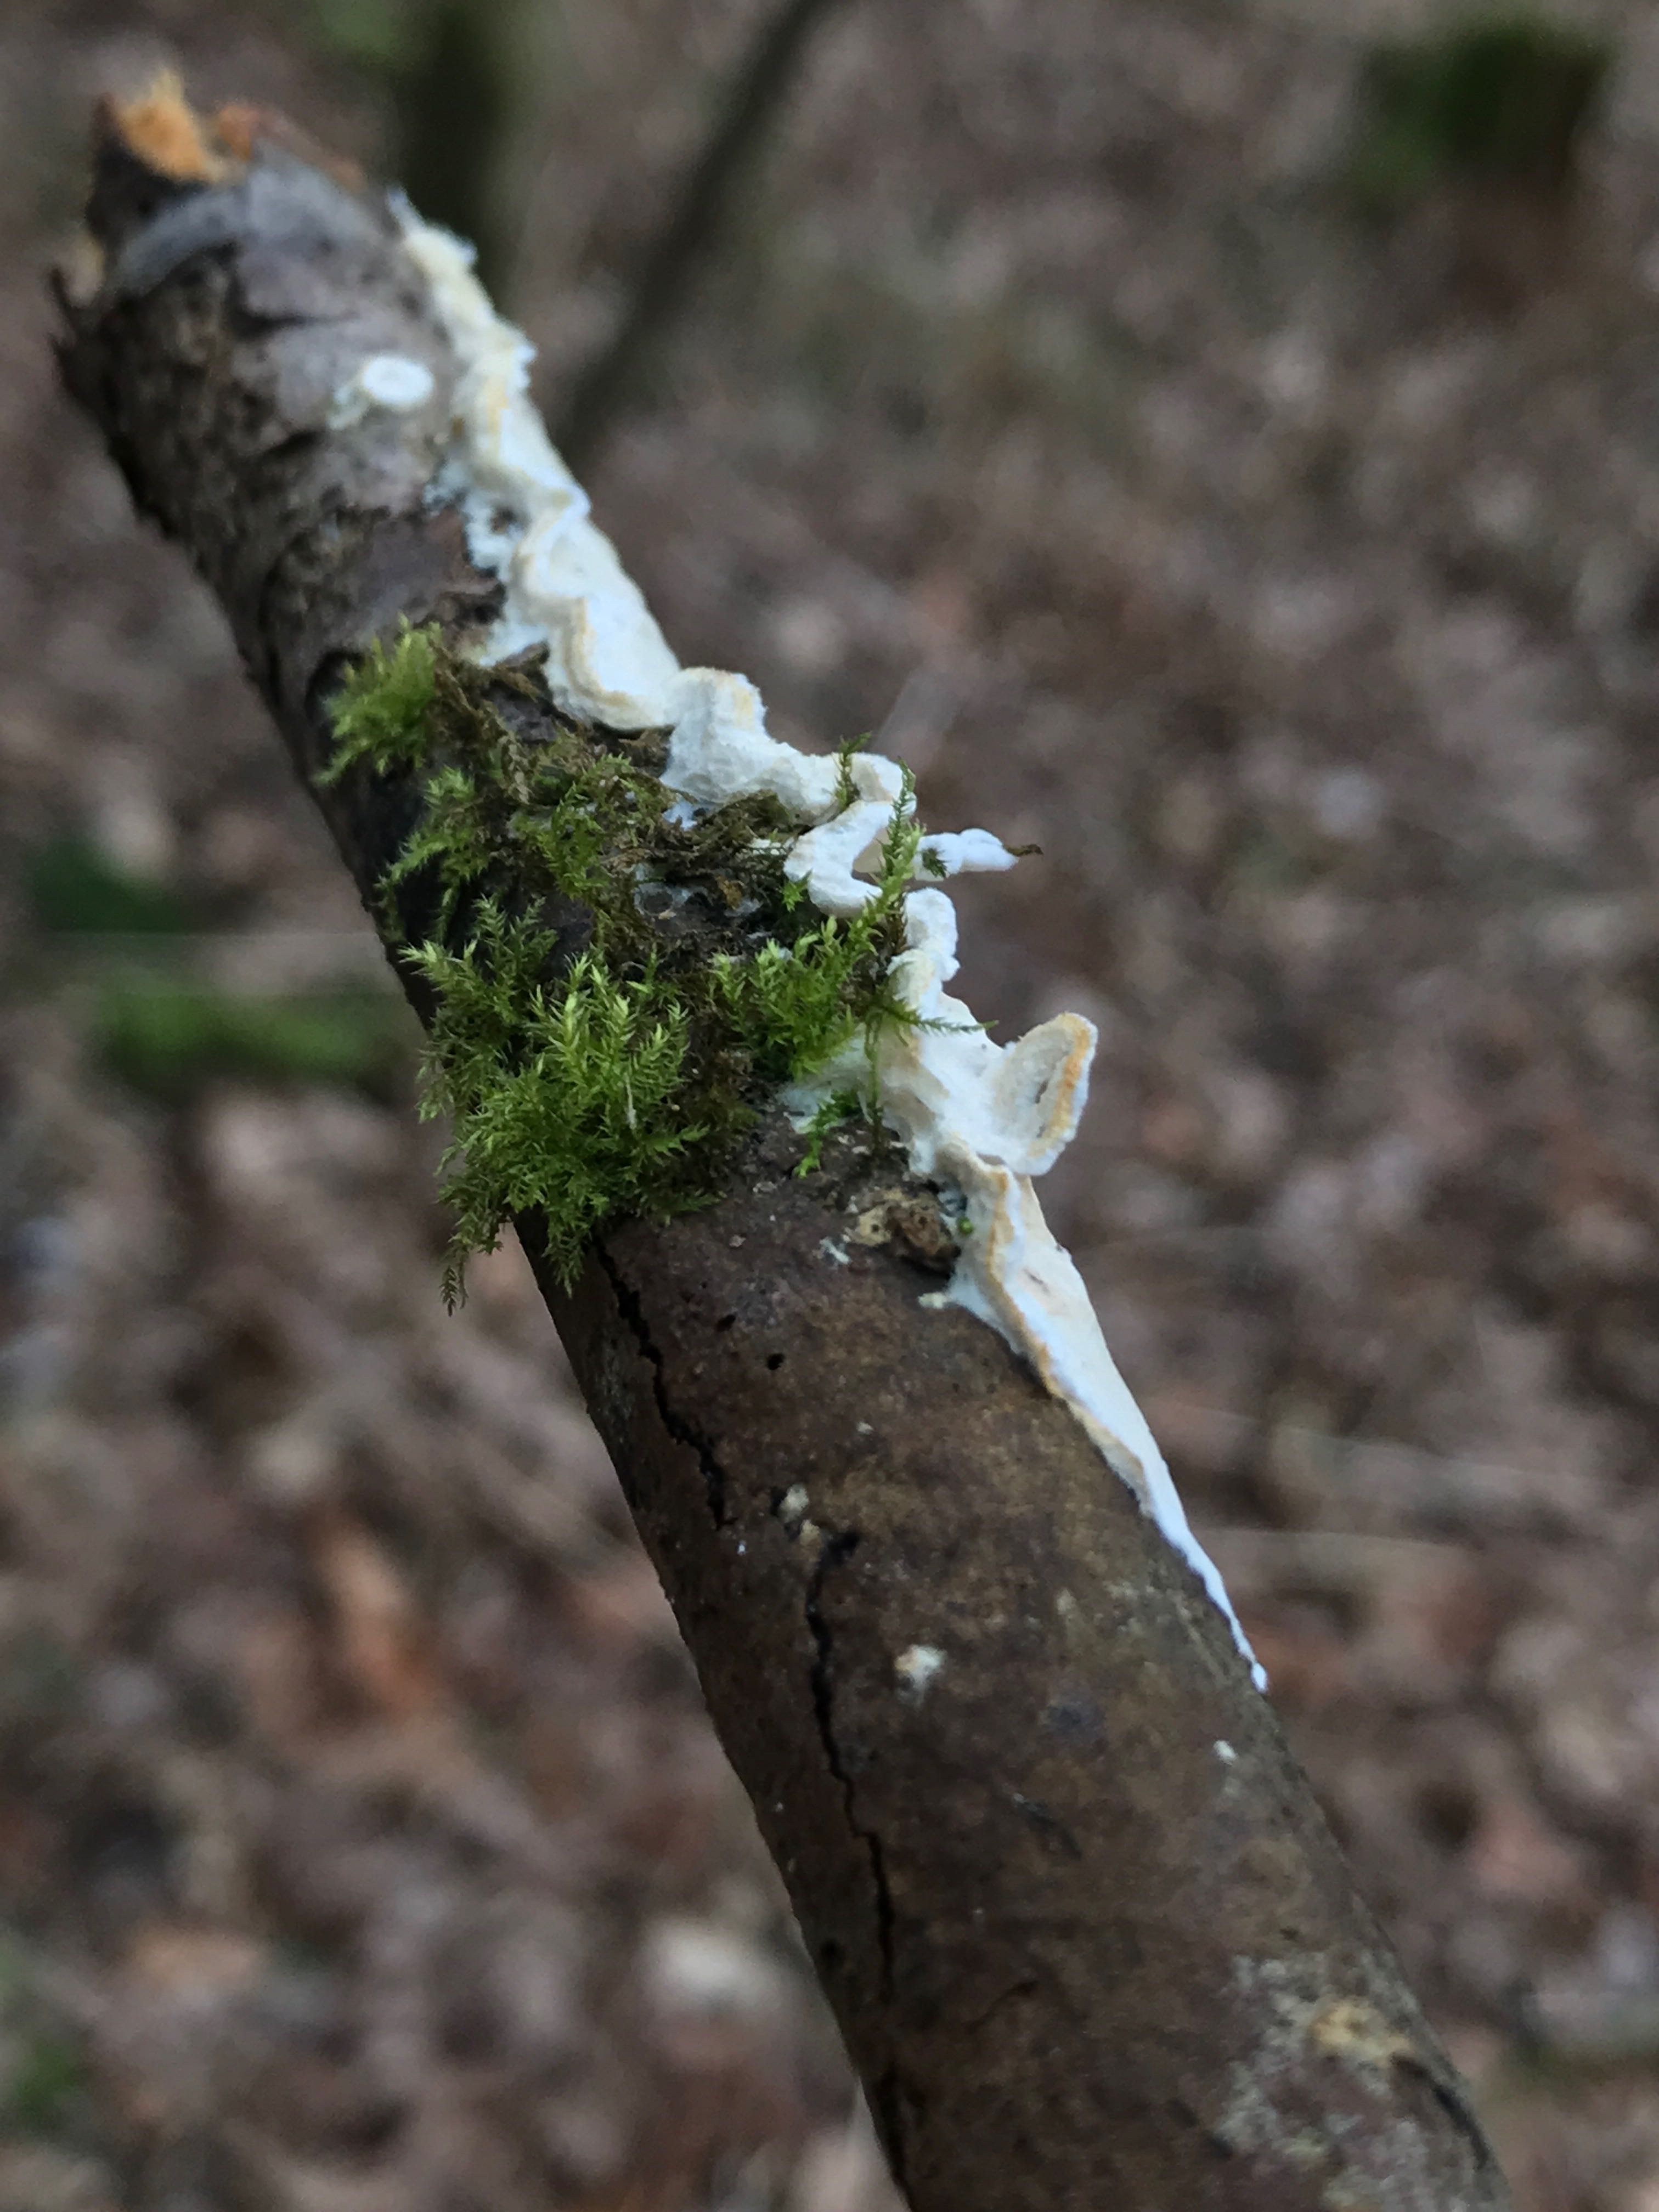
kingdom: Fungi
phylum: Basidiomycota
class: Agaricomycetes
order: Polyporales
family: Irpicaceae
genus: Byssomerulius
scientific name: Byssomerulius corium
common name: læder-åresvamp
